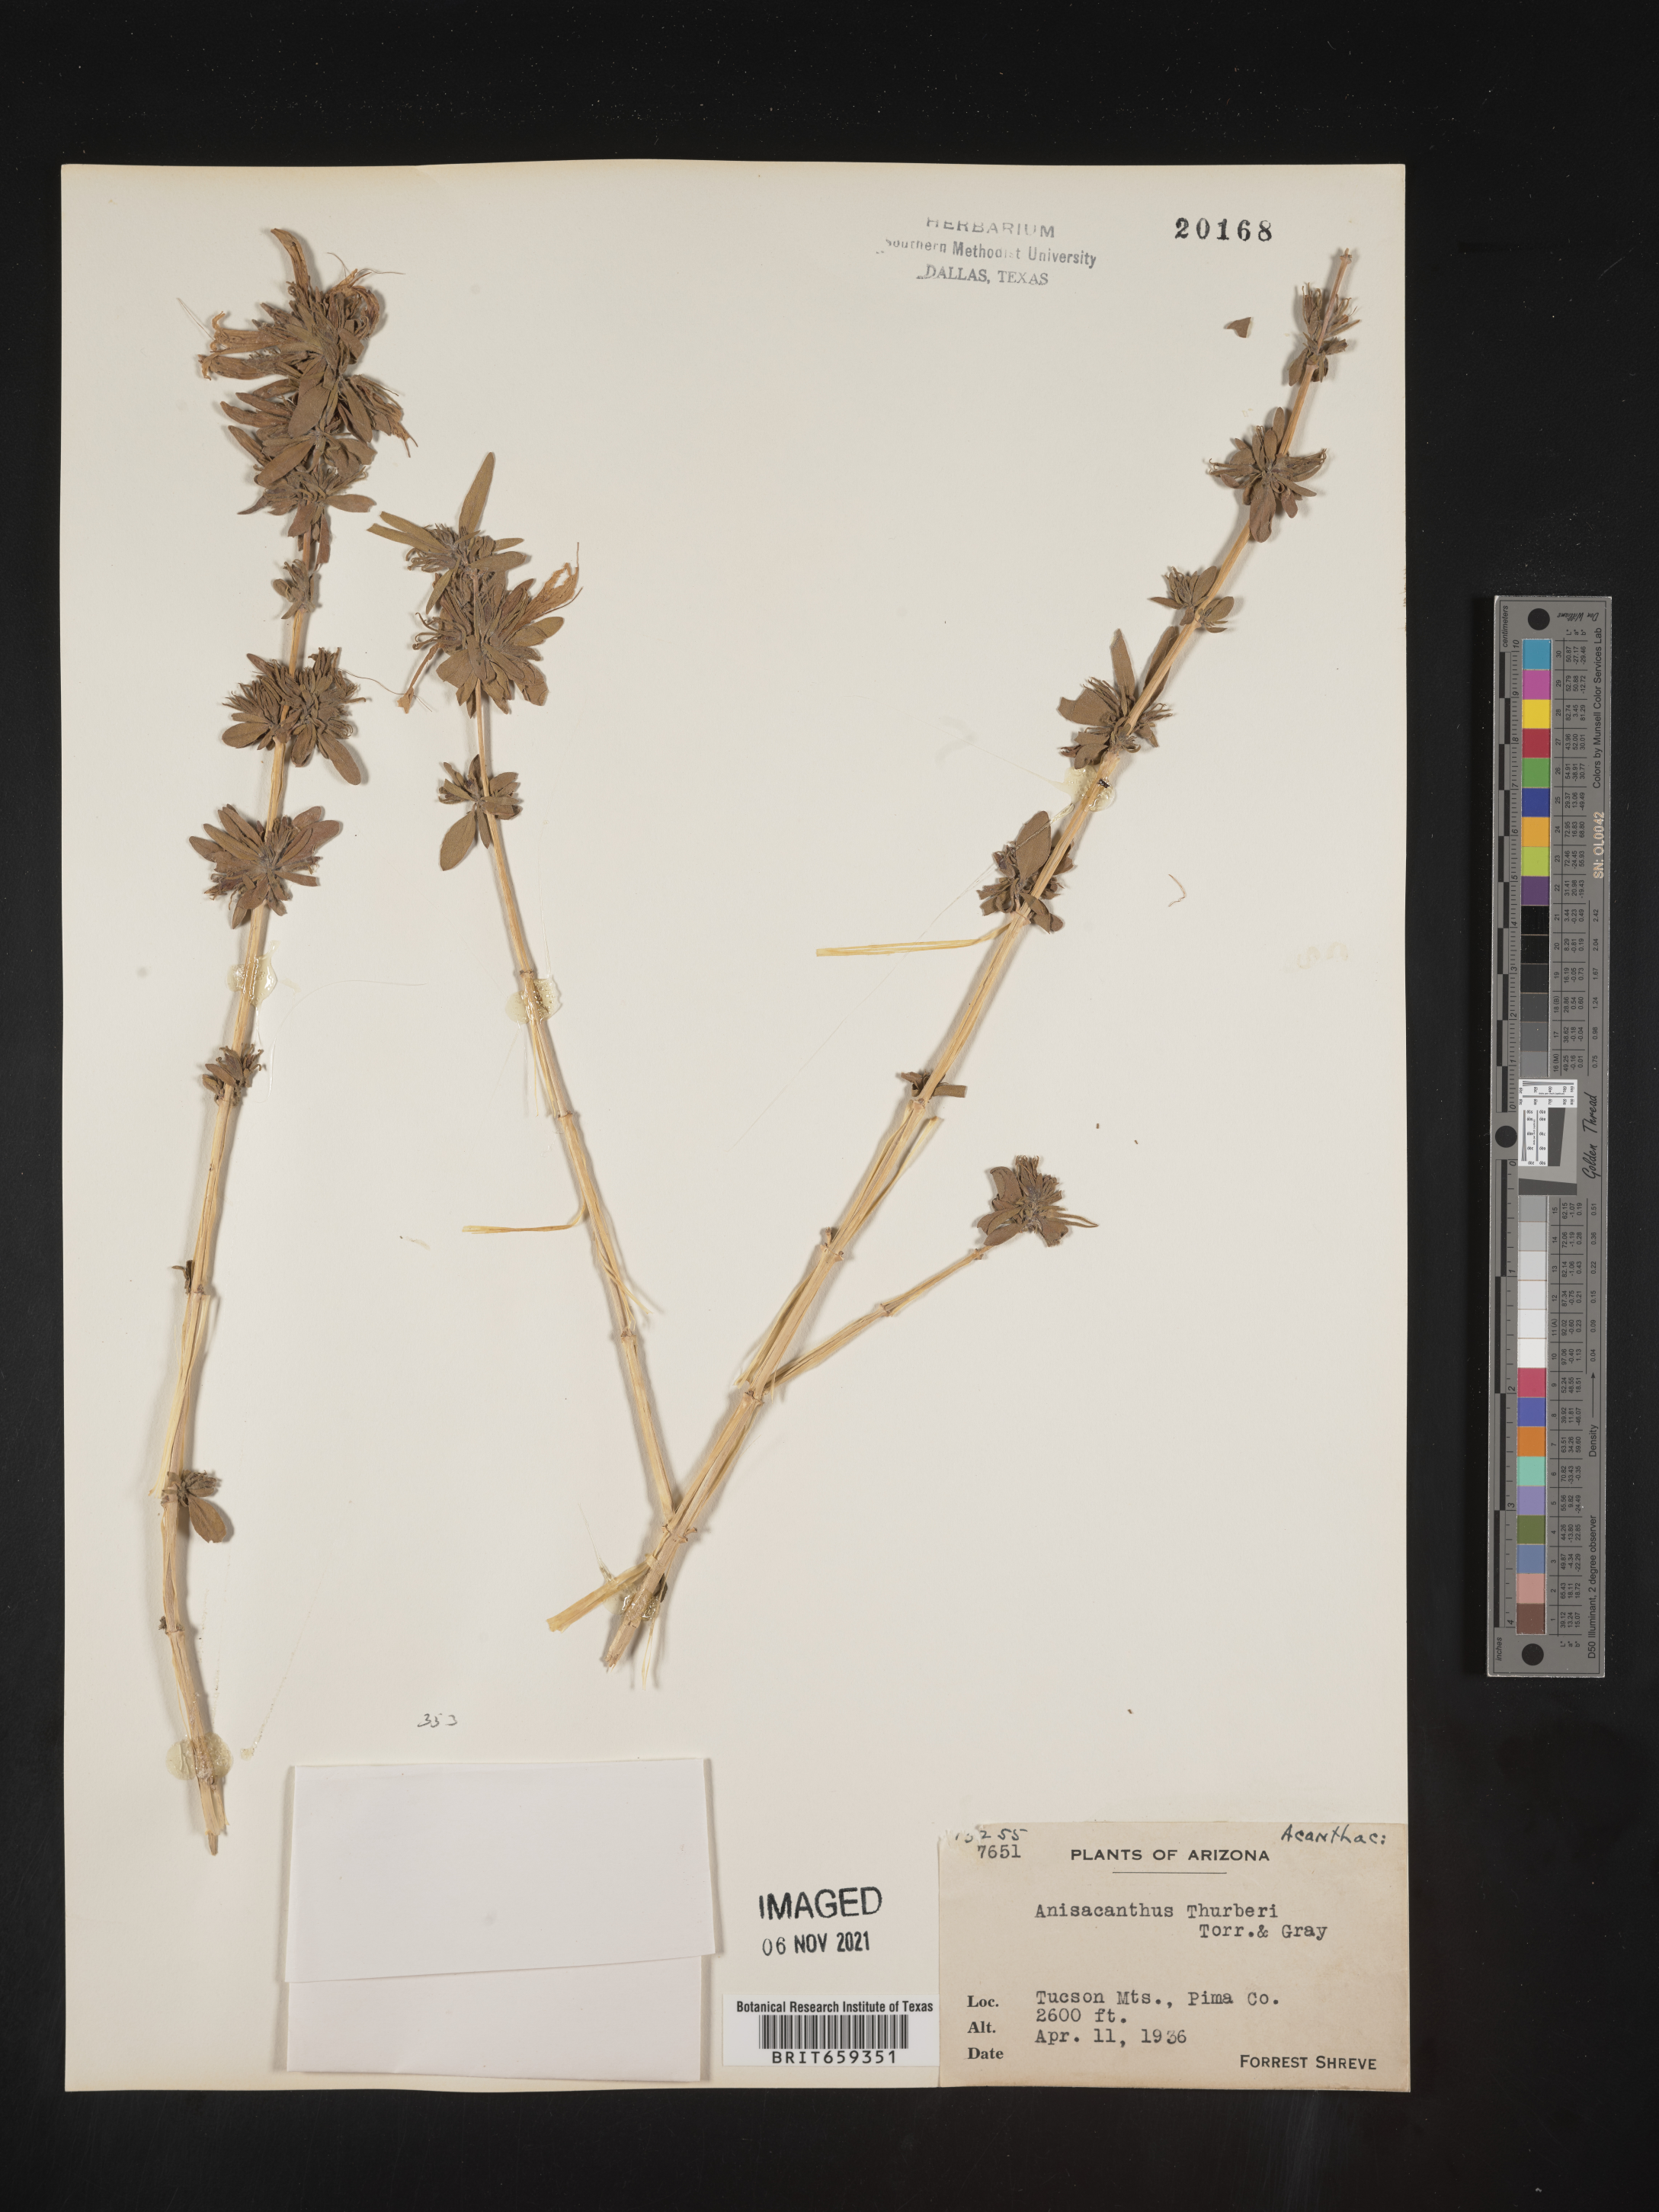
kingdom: Plantae
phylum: Tracheophyta
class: Magnoliopsida
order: Lamiales
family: Acanthaceae
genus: Anisacanthus
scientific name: Anisacanthus
